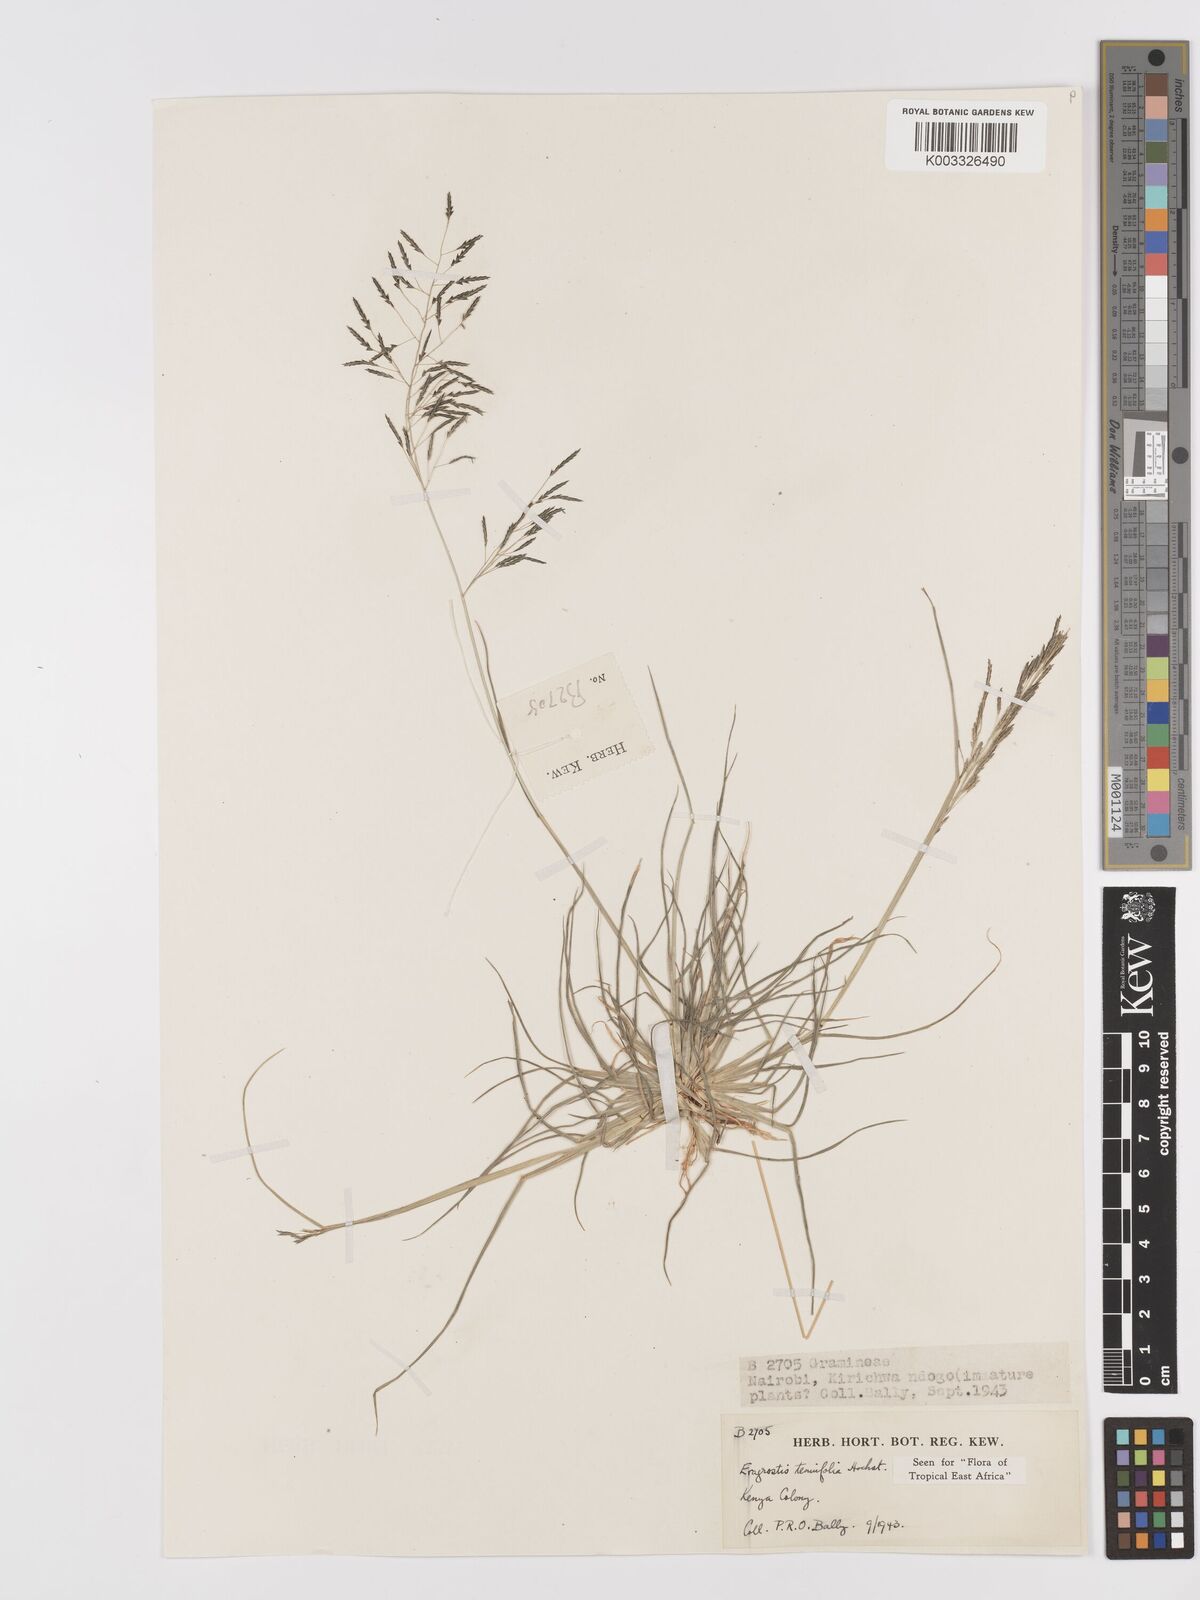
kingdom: Plantae
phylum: Tracheophyta
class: Liliopsida
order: Poales
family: Poaceae
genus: Eragrostis
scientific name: Eragrostis tenuifolia
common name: Elastic grass
